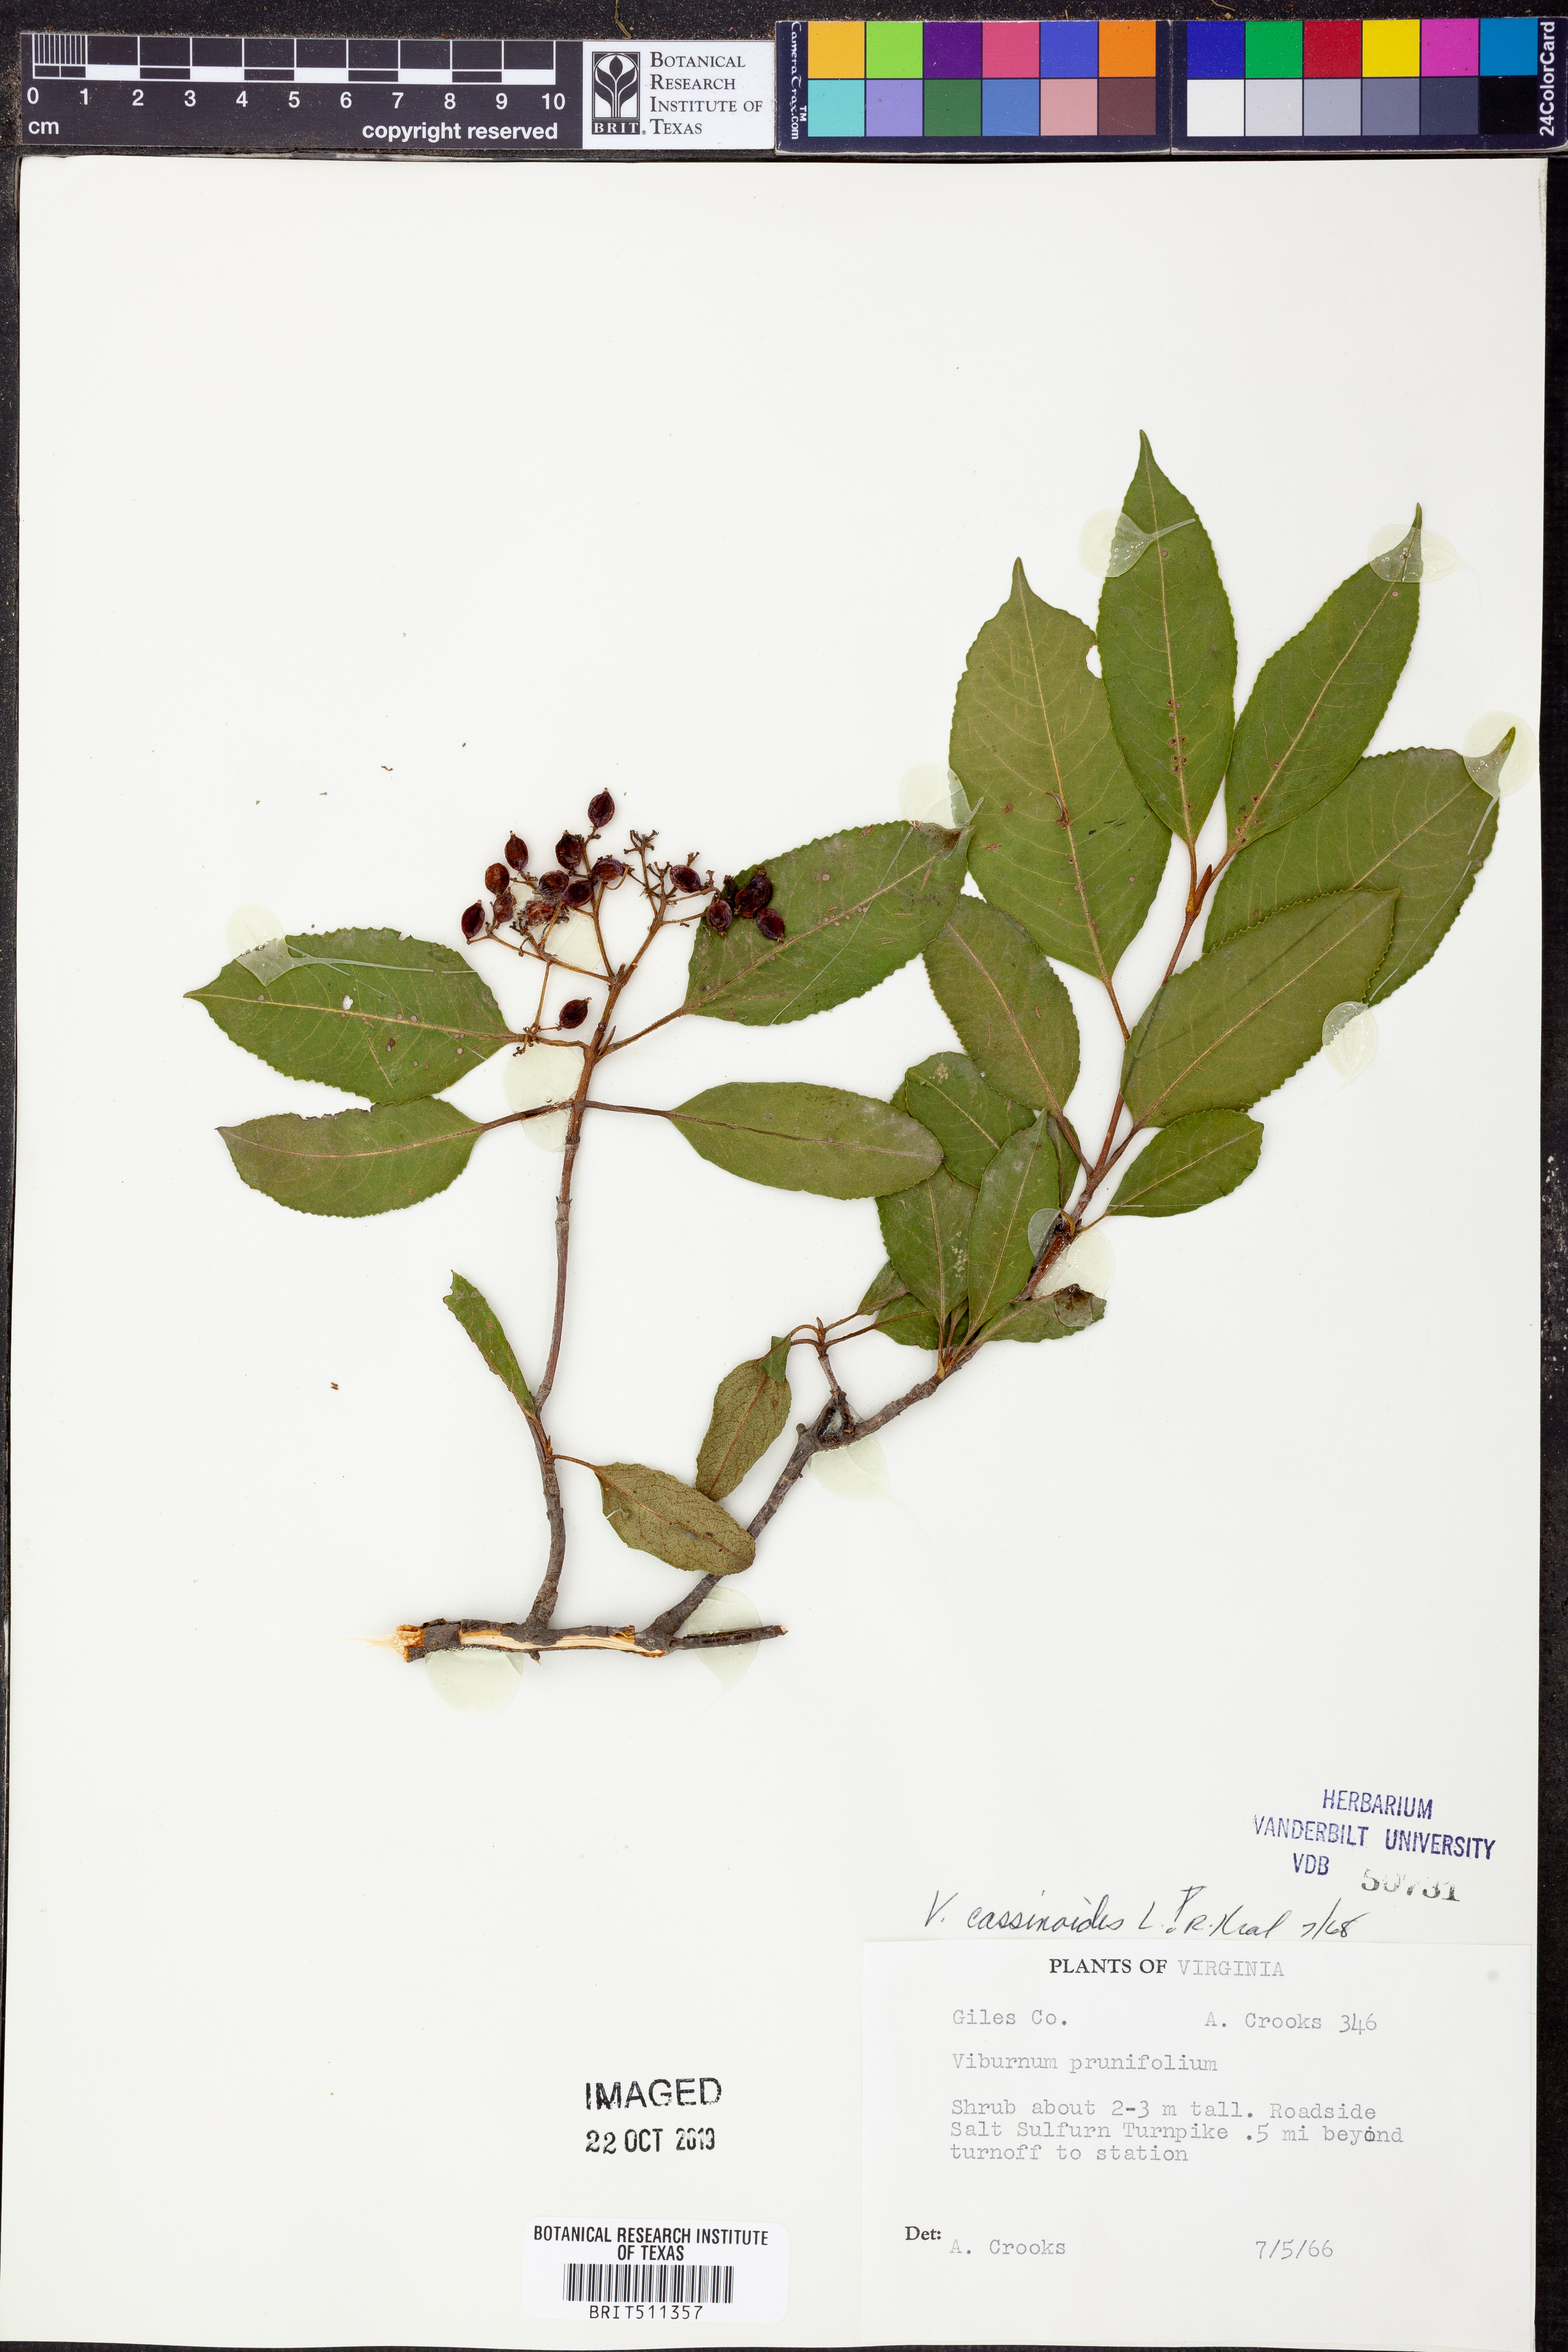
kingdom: Plantae
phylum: Tracheophyta
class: Magnoliopsida
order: Dipsacales
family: Viburnaceae
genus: Viburnum
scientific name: Viburnum cassinoides
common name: Swamp haw
